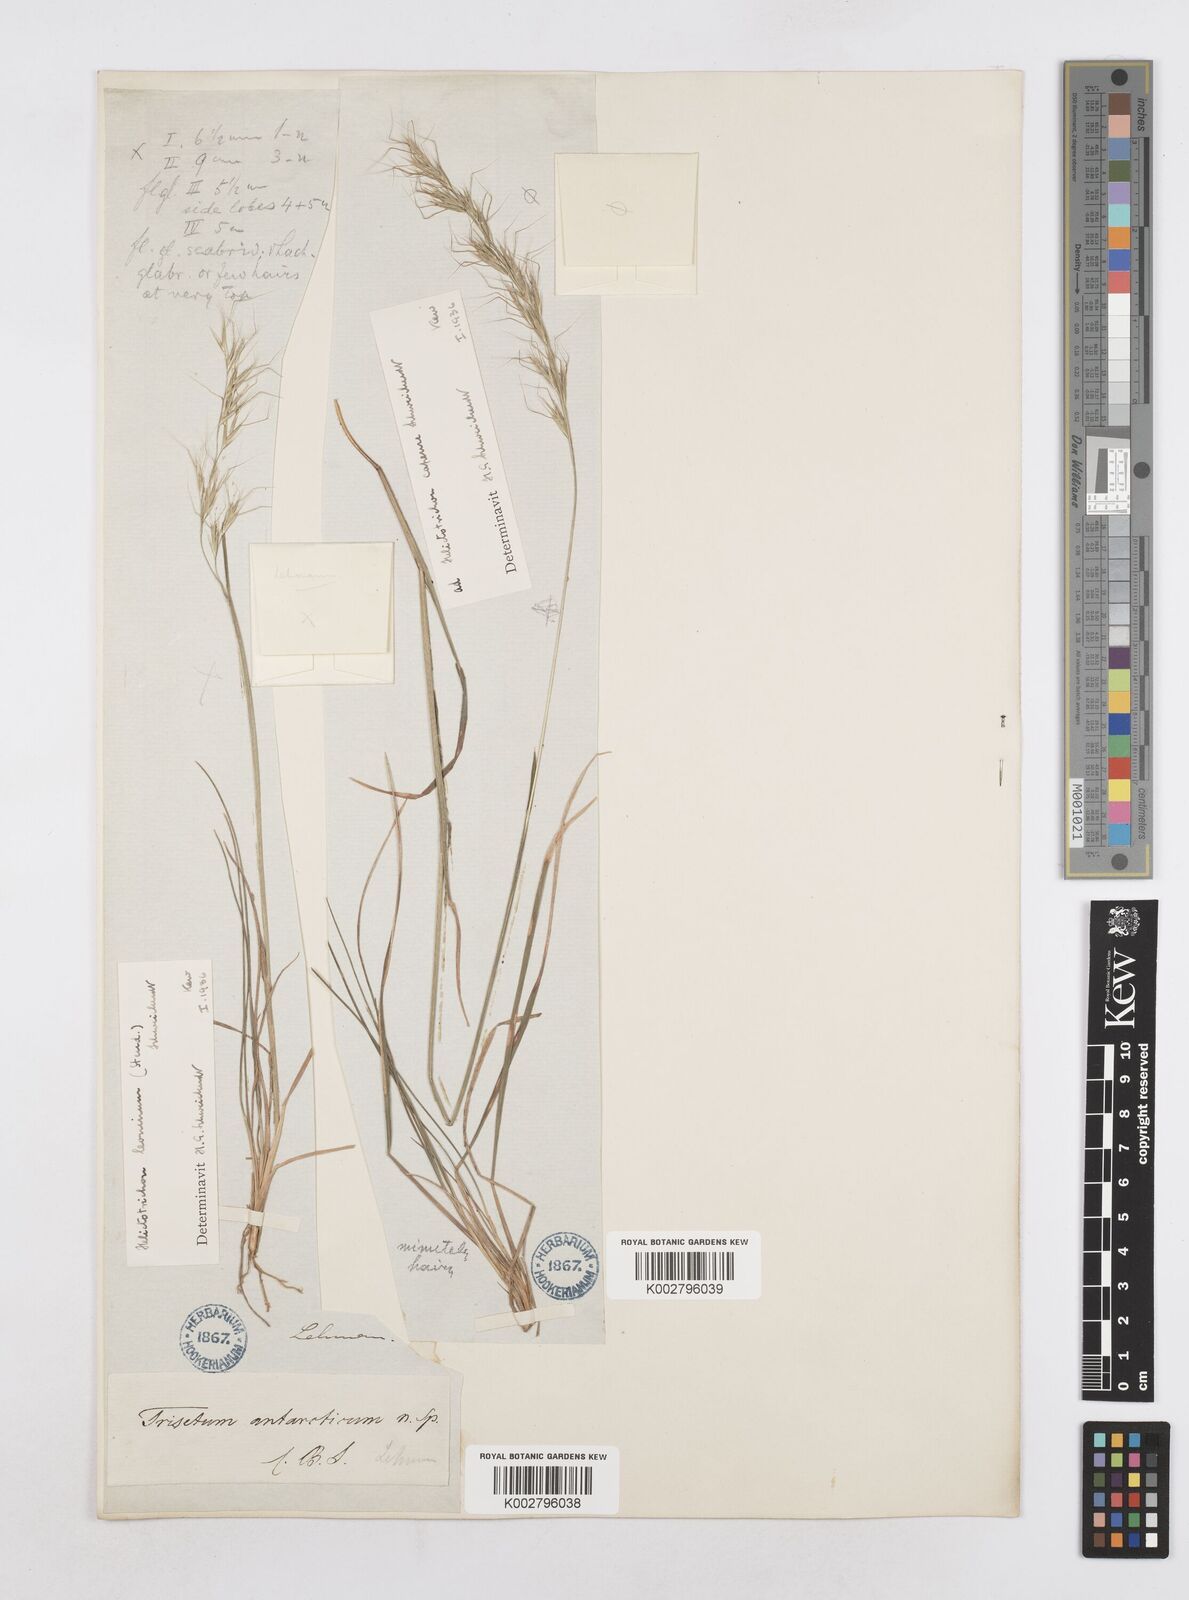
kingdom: Plantae
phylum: Tracheophyta
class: Liliopsida
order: Poales
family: Poaceae
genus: Trisetopsis
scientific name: Trisetopsis leonina
